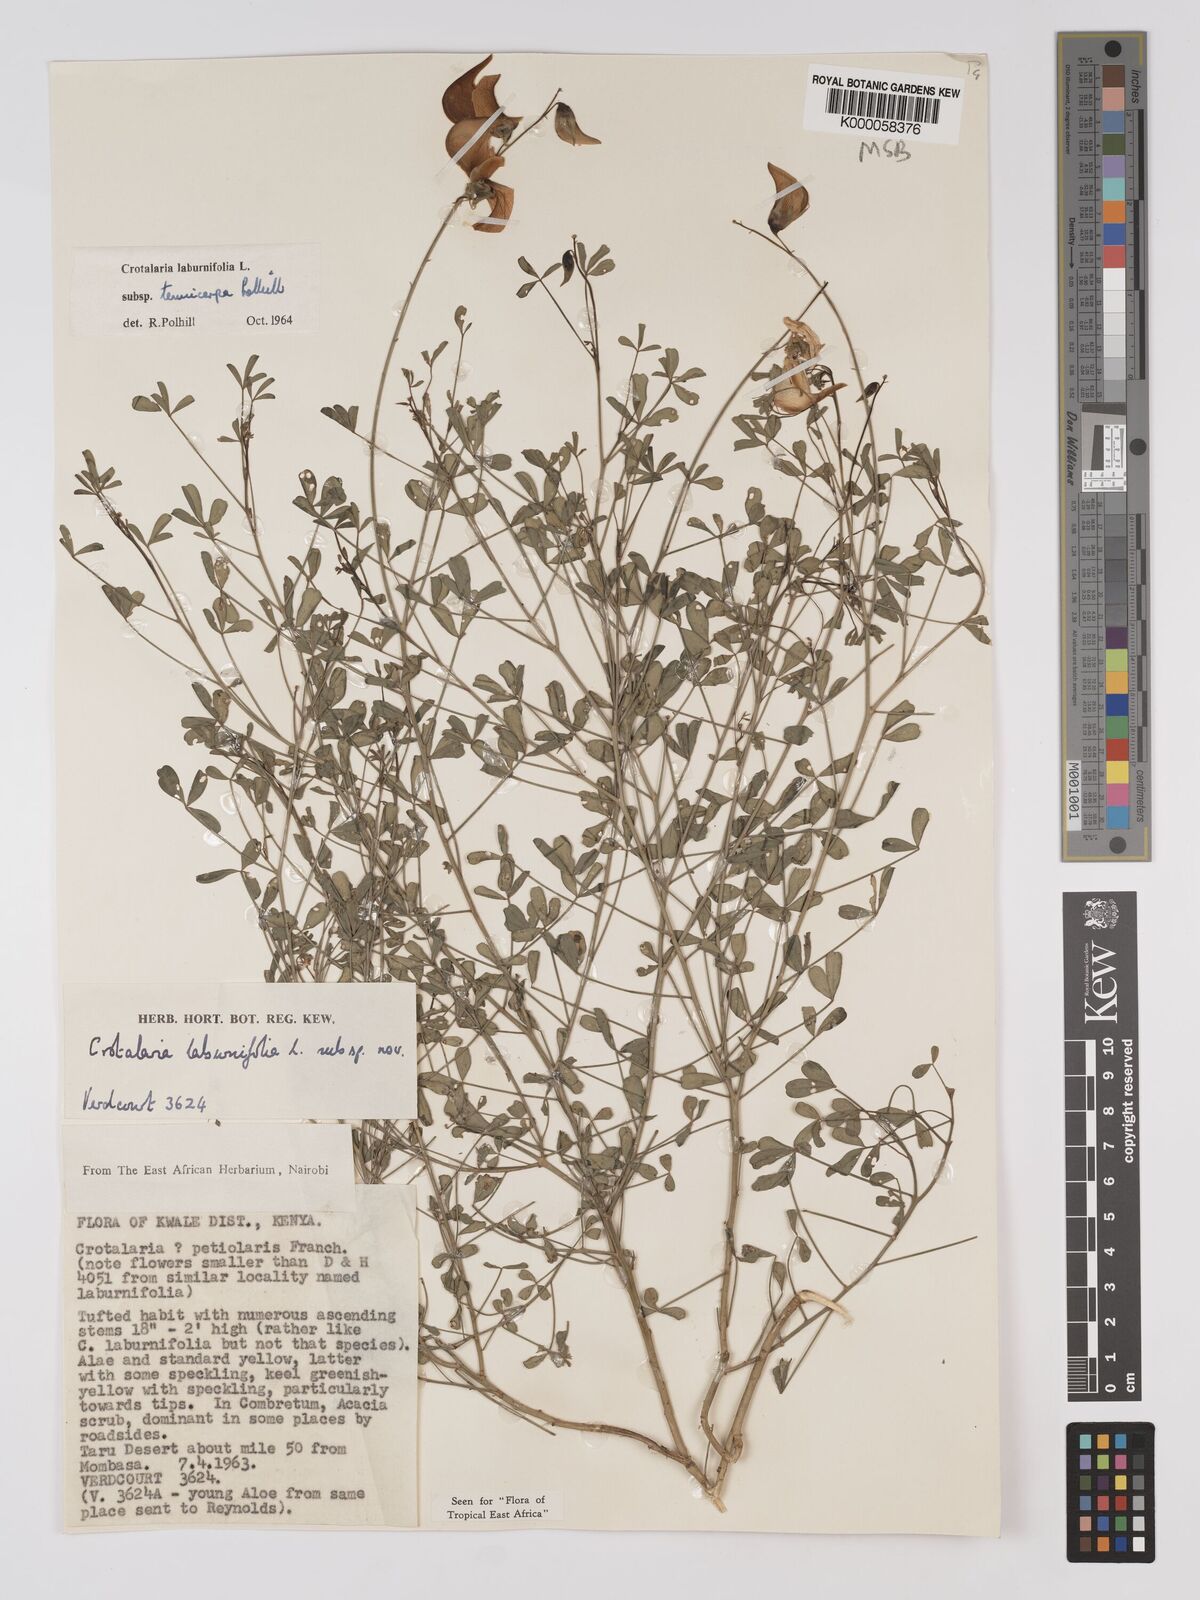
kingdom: Plantae
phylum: Tracheophyta
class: Magnoliopsida
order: Fabales
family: Fabaceae
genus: Crotalaria
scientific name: Crotalaria laburnifolia
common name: Birdflower
